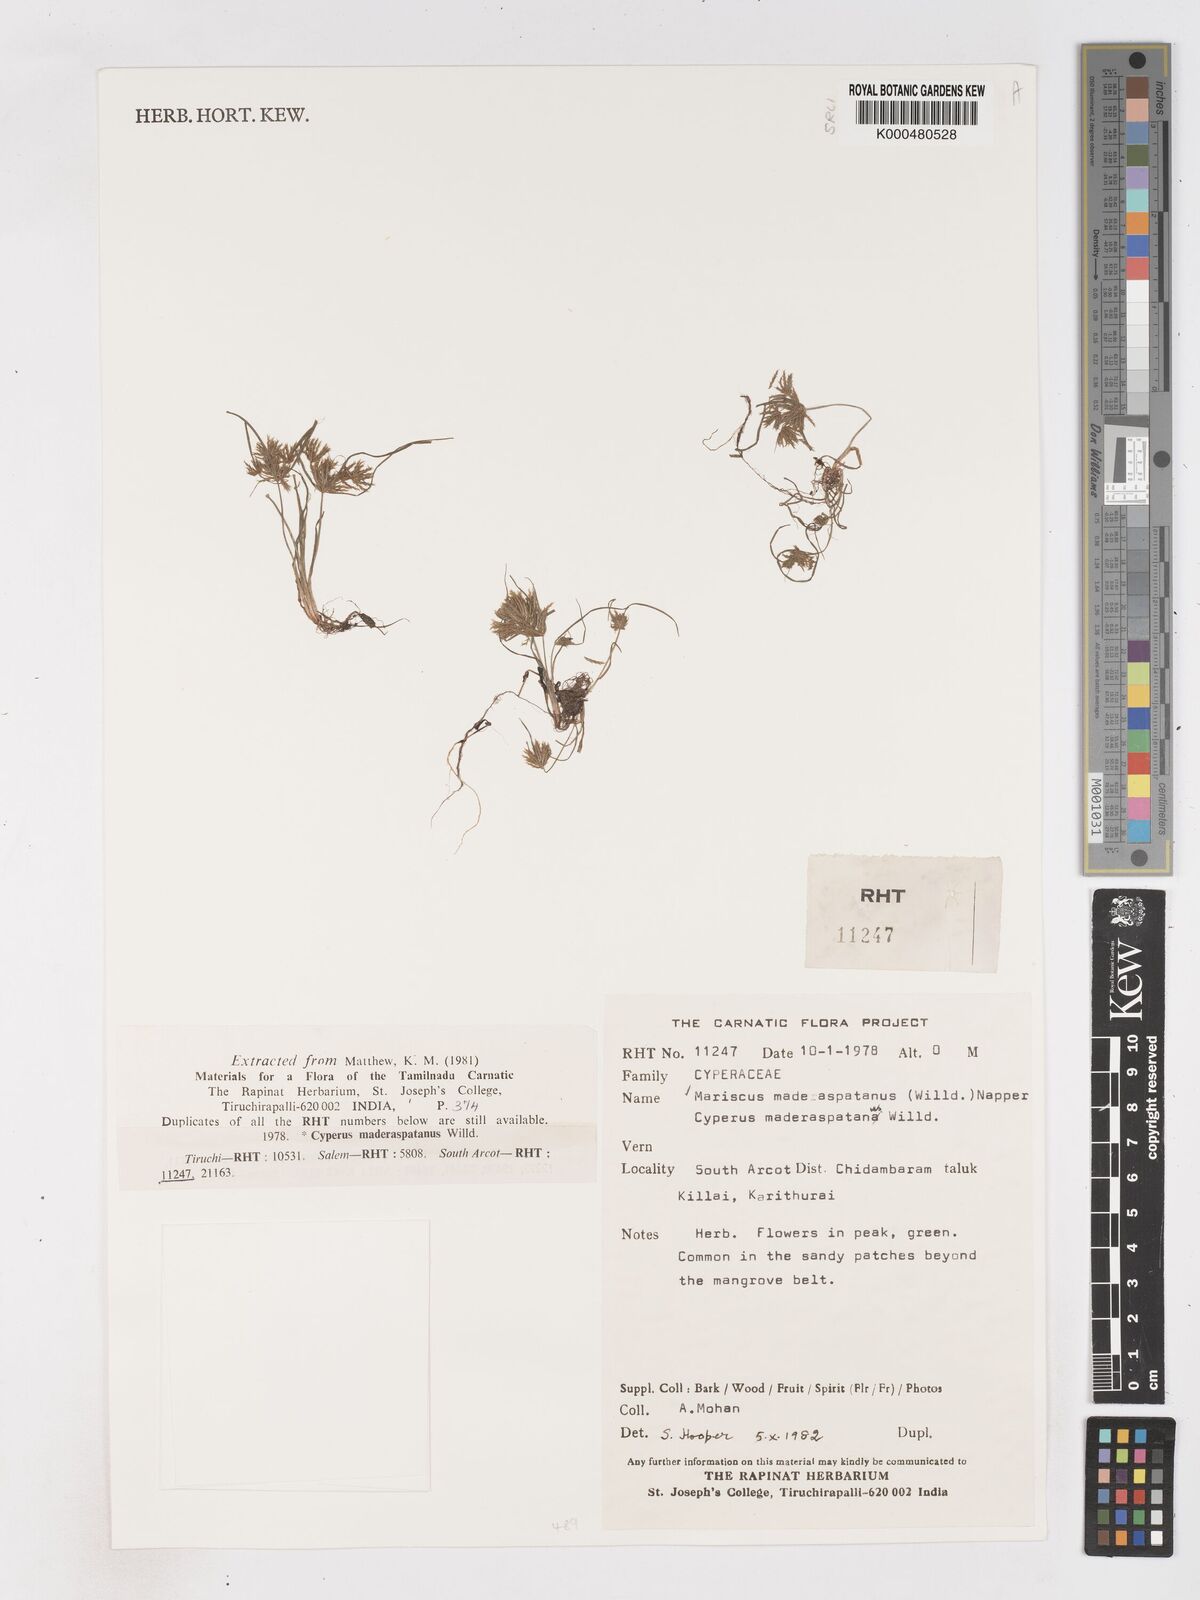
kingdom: Plantae
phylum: Tracheophyta
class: Liliopsida
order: Poales
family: Cyperaceae
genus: Cyperus
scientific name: Cyperus maderaspatanus
